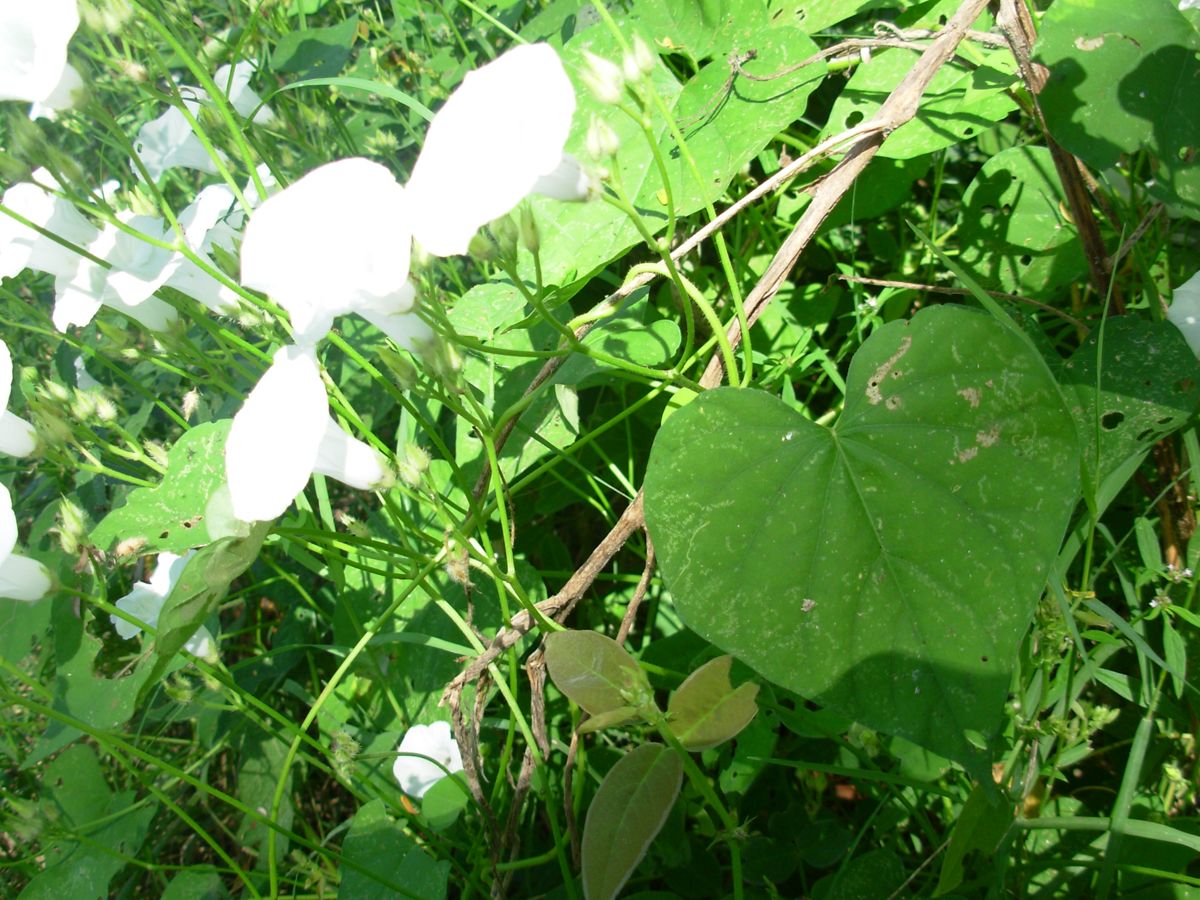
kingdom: Plantae
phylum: Tracheophyta
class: Magnoliopsida
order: Solanales
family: Convolvulaceae
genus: Ipomoea
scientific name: Ipomoea
